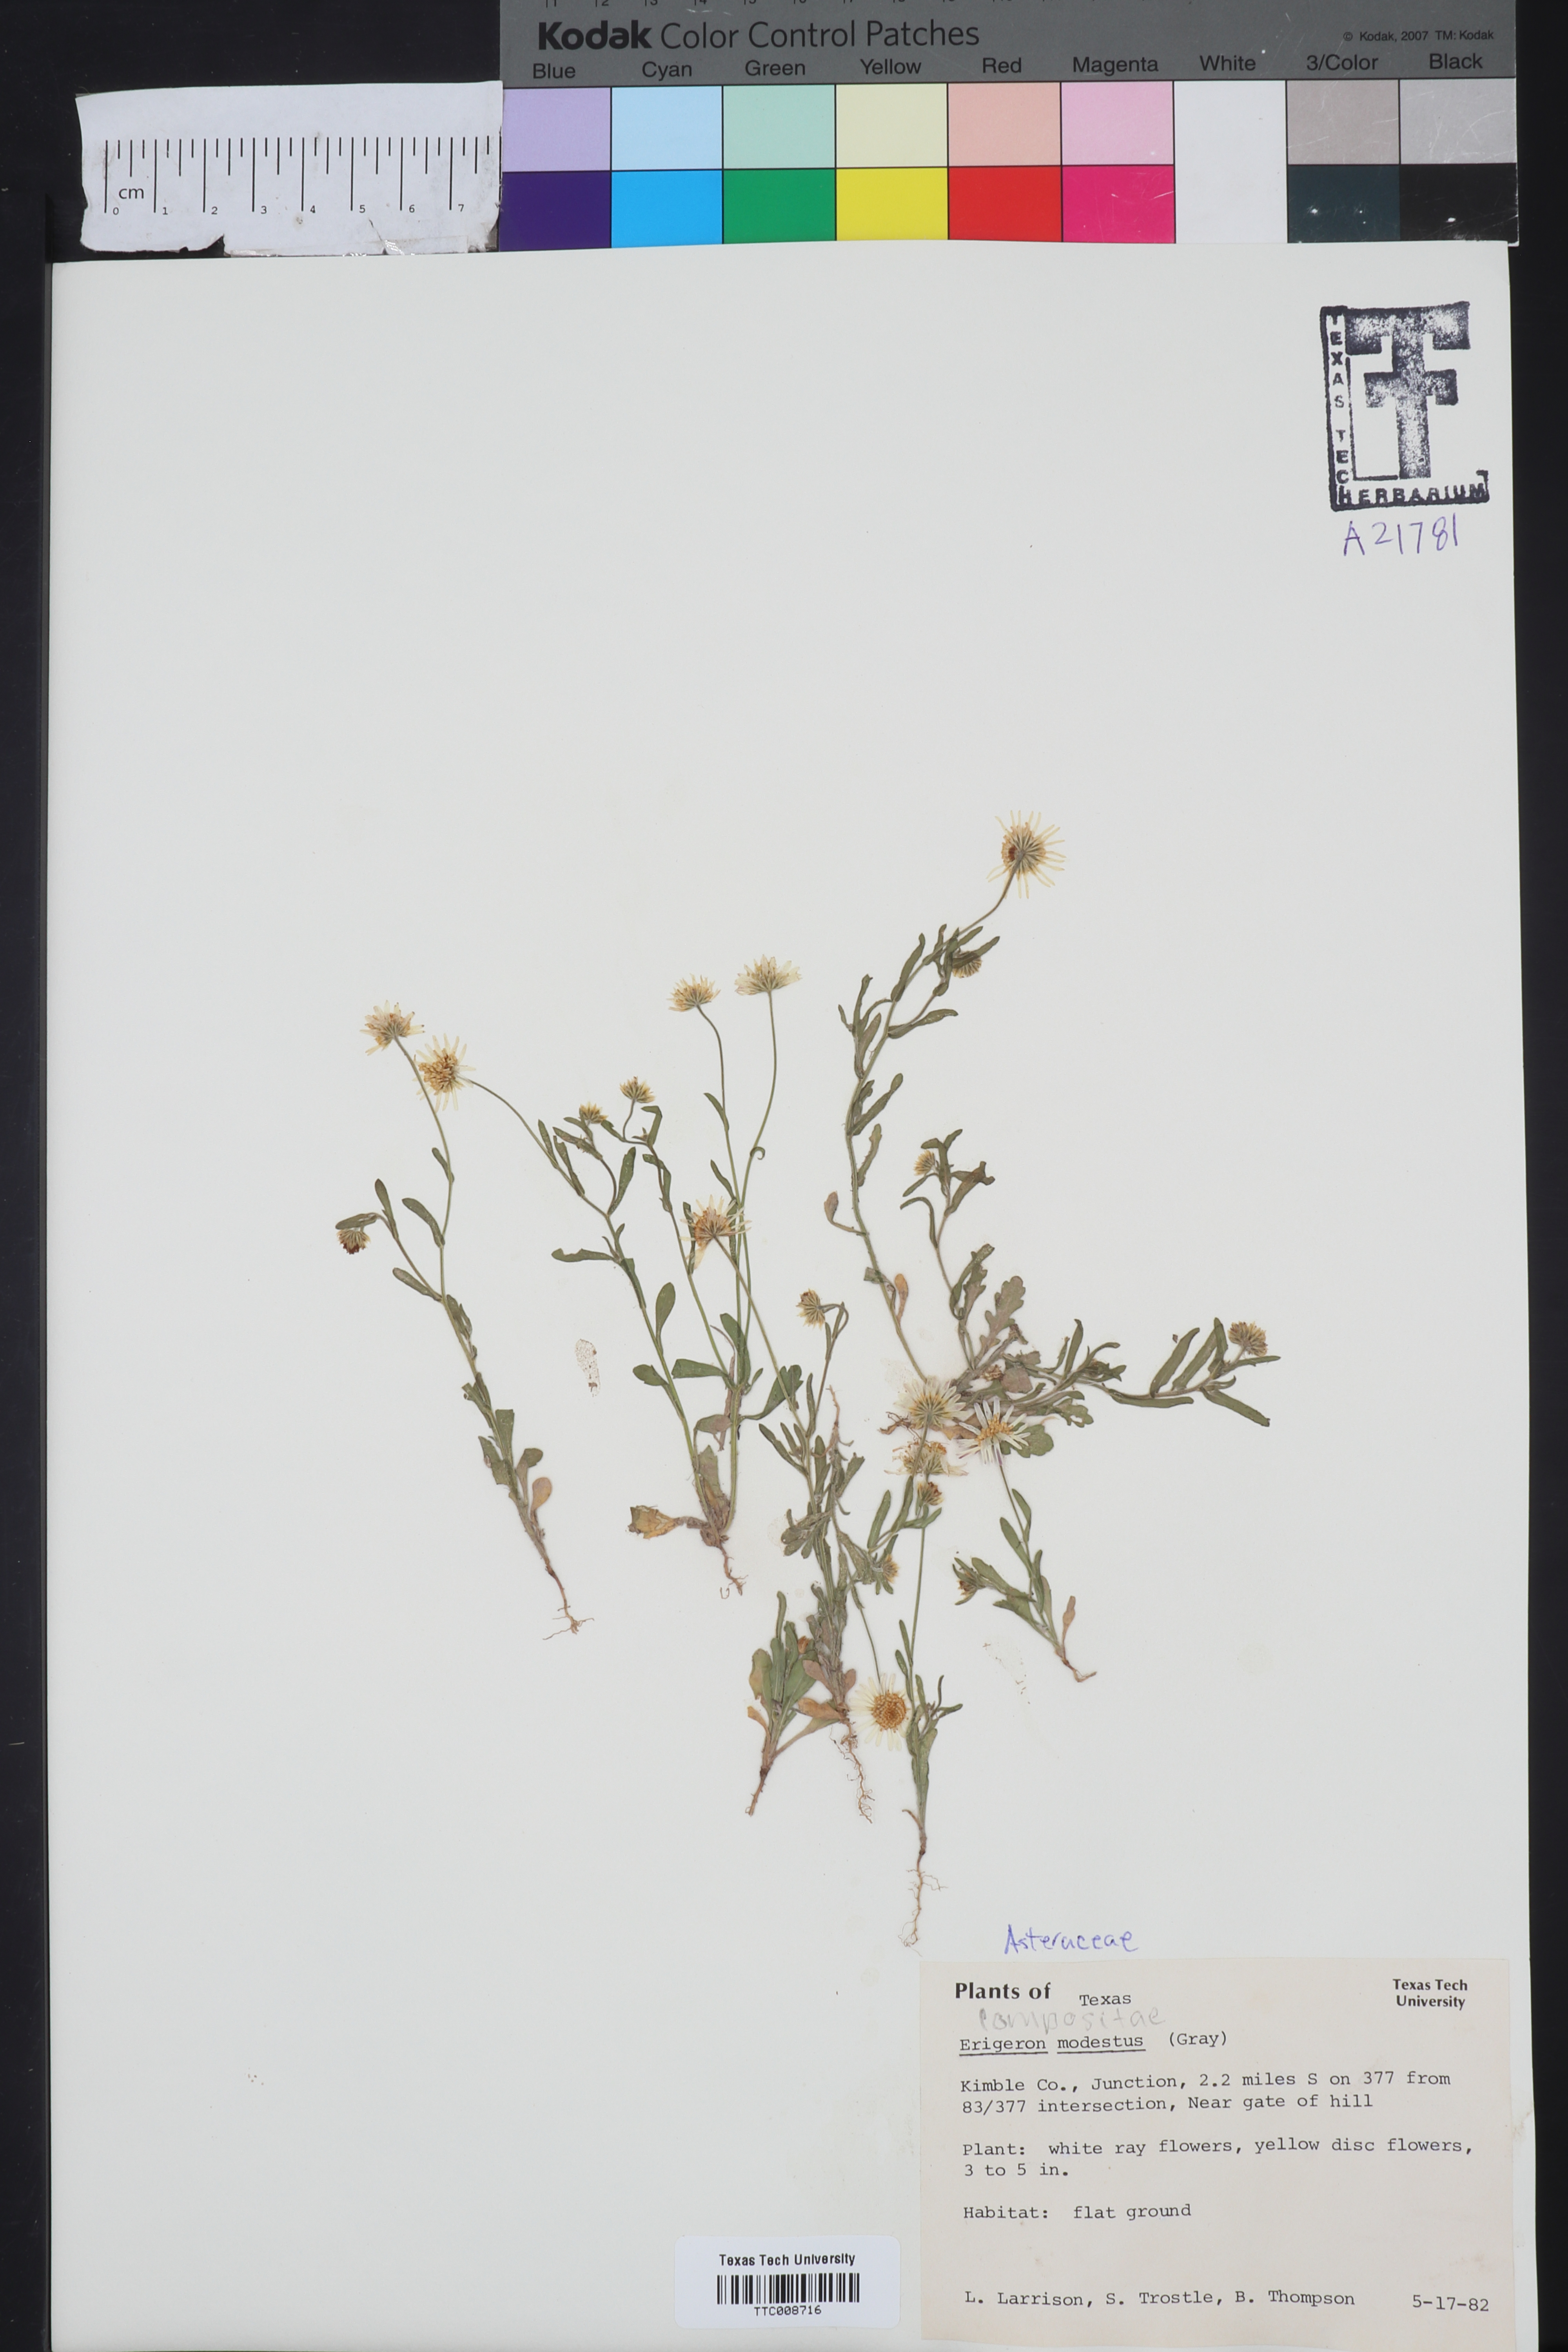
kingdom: Plantae
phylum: Tracheophyta
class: Magnoliopsida
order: Asterales
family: Asteraceae
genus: Erigeron
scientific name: Erigeron modestus
